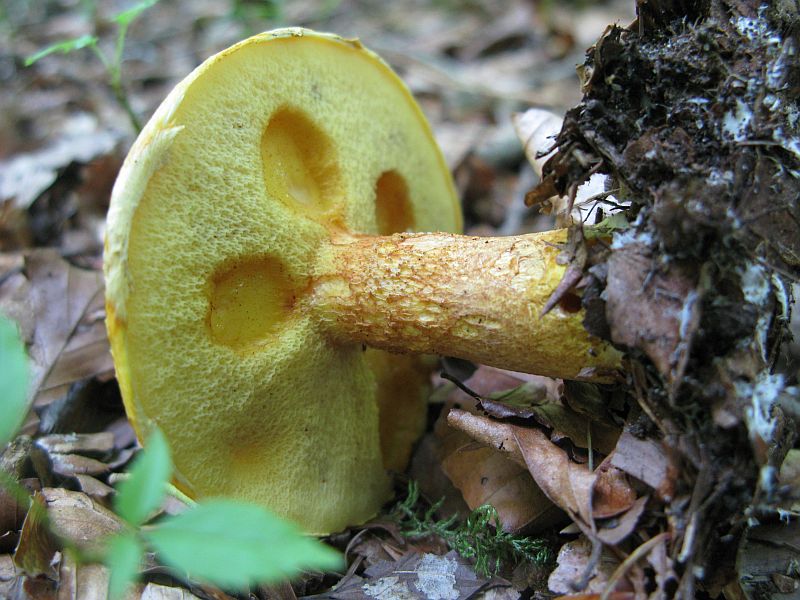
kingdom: Fungi
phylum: Basidiomycota
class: Agaricomycetes
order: Boletales
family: Suillaceae
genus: Suillus
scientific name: Suillus grevillei
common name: lærke-slimrørhat
